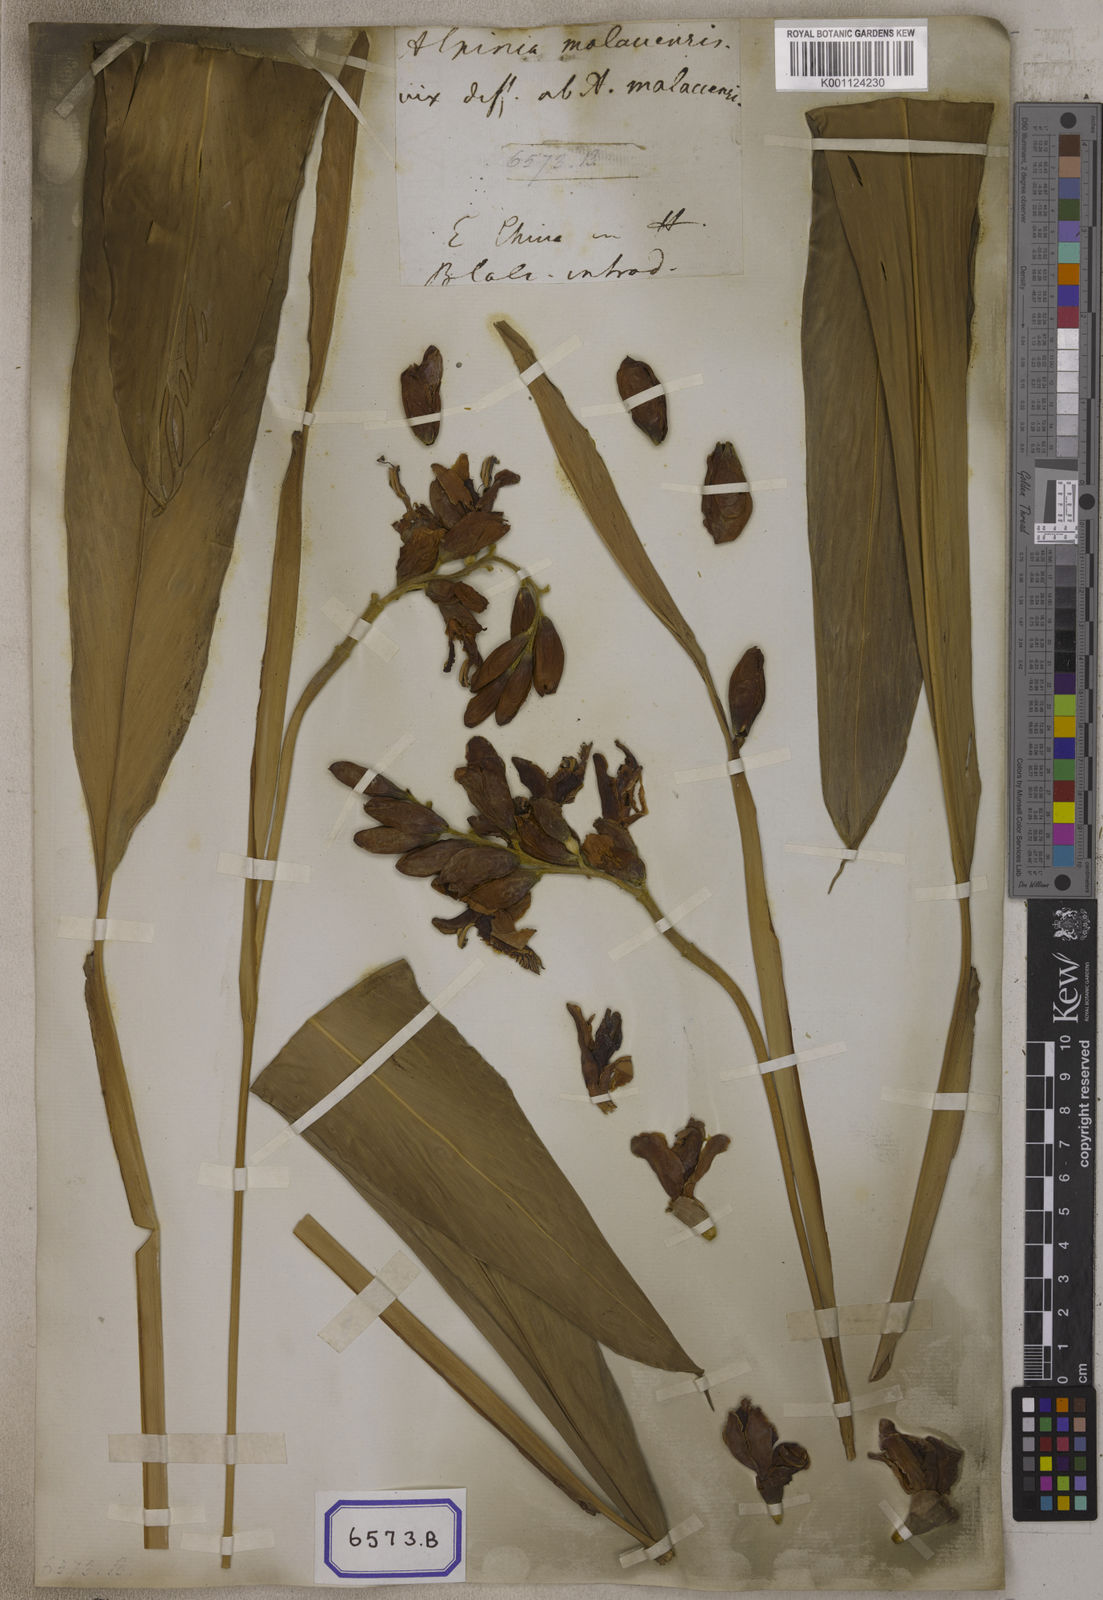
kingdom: Plantae
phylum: Tracheophyta
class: Liliopsida
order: Zingiberales
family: Zingiberaceae
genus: Alpinia
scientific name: Alpinia malaccensis
